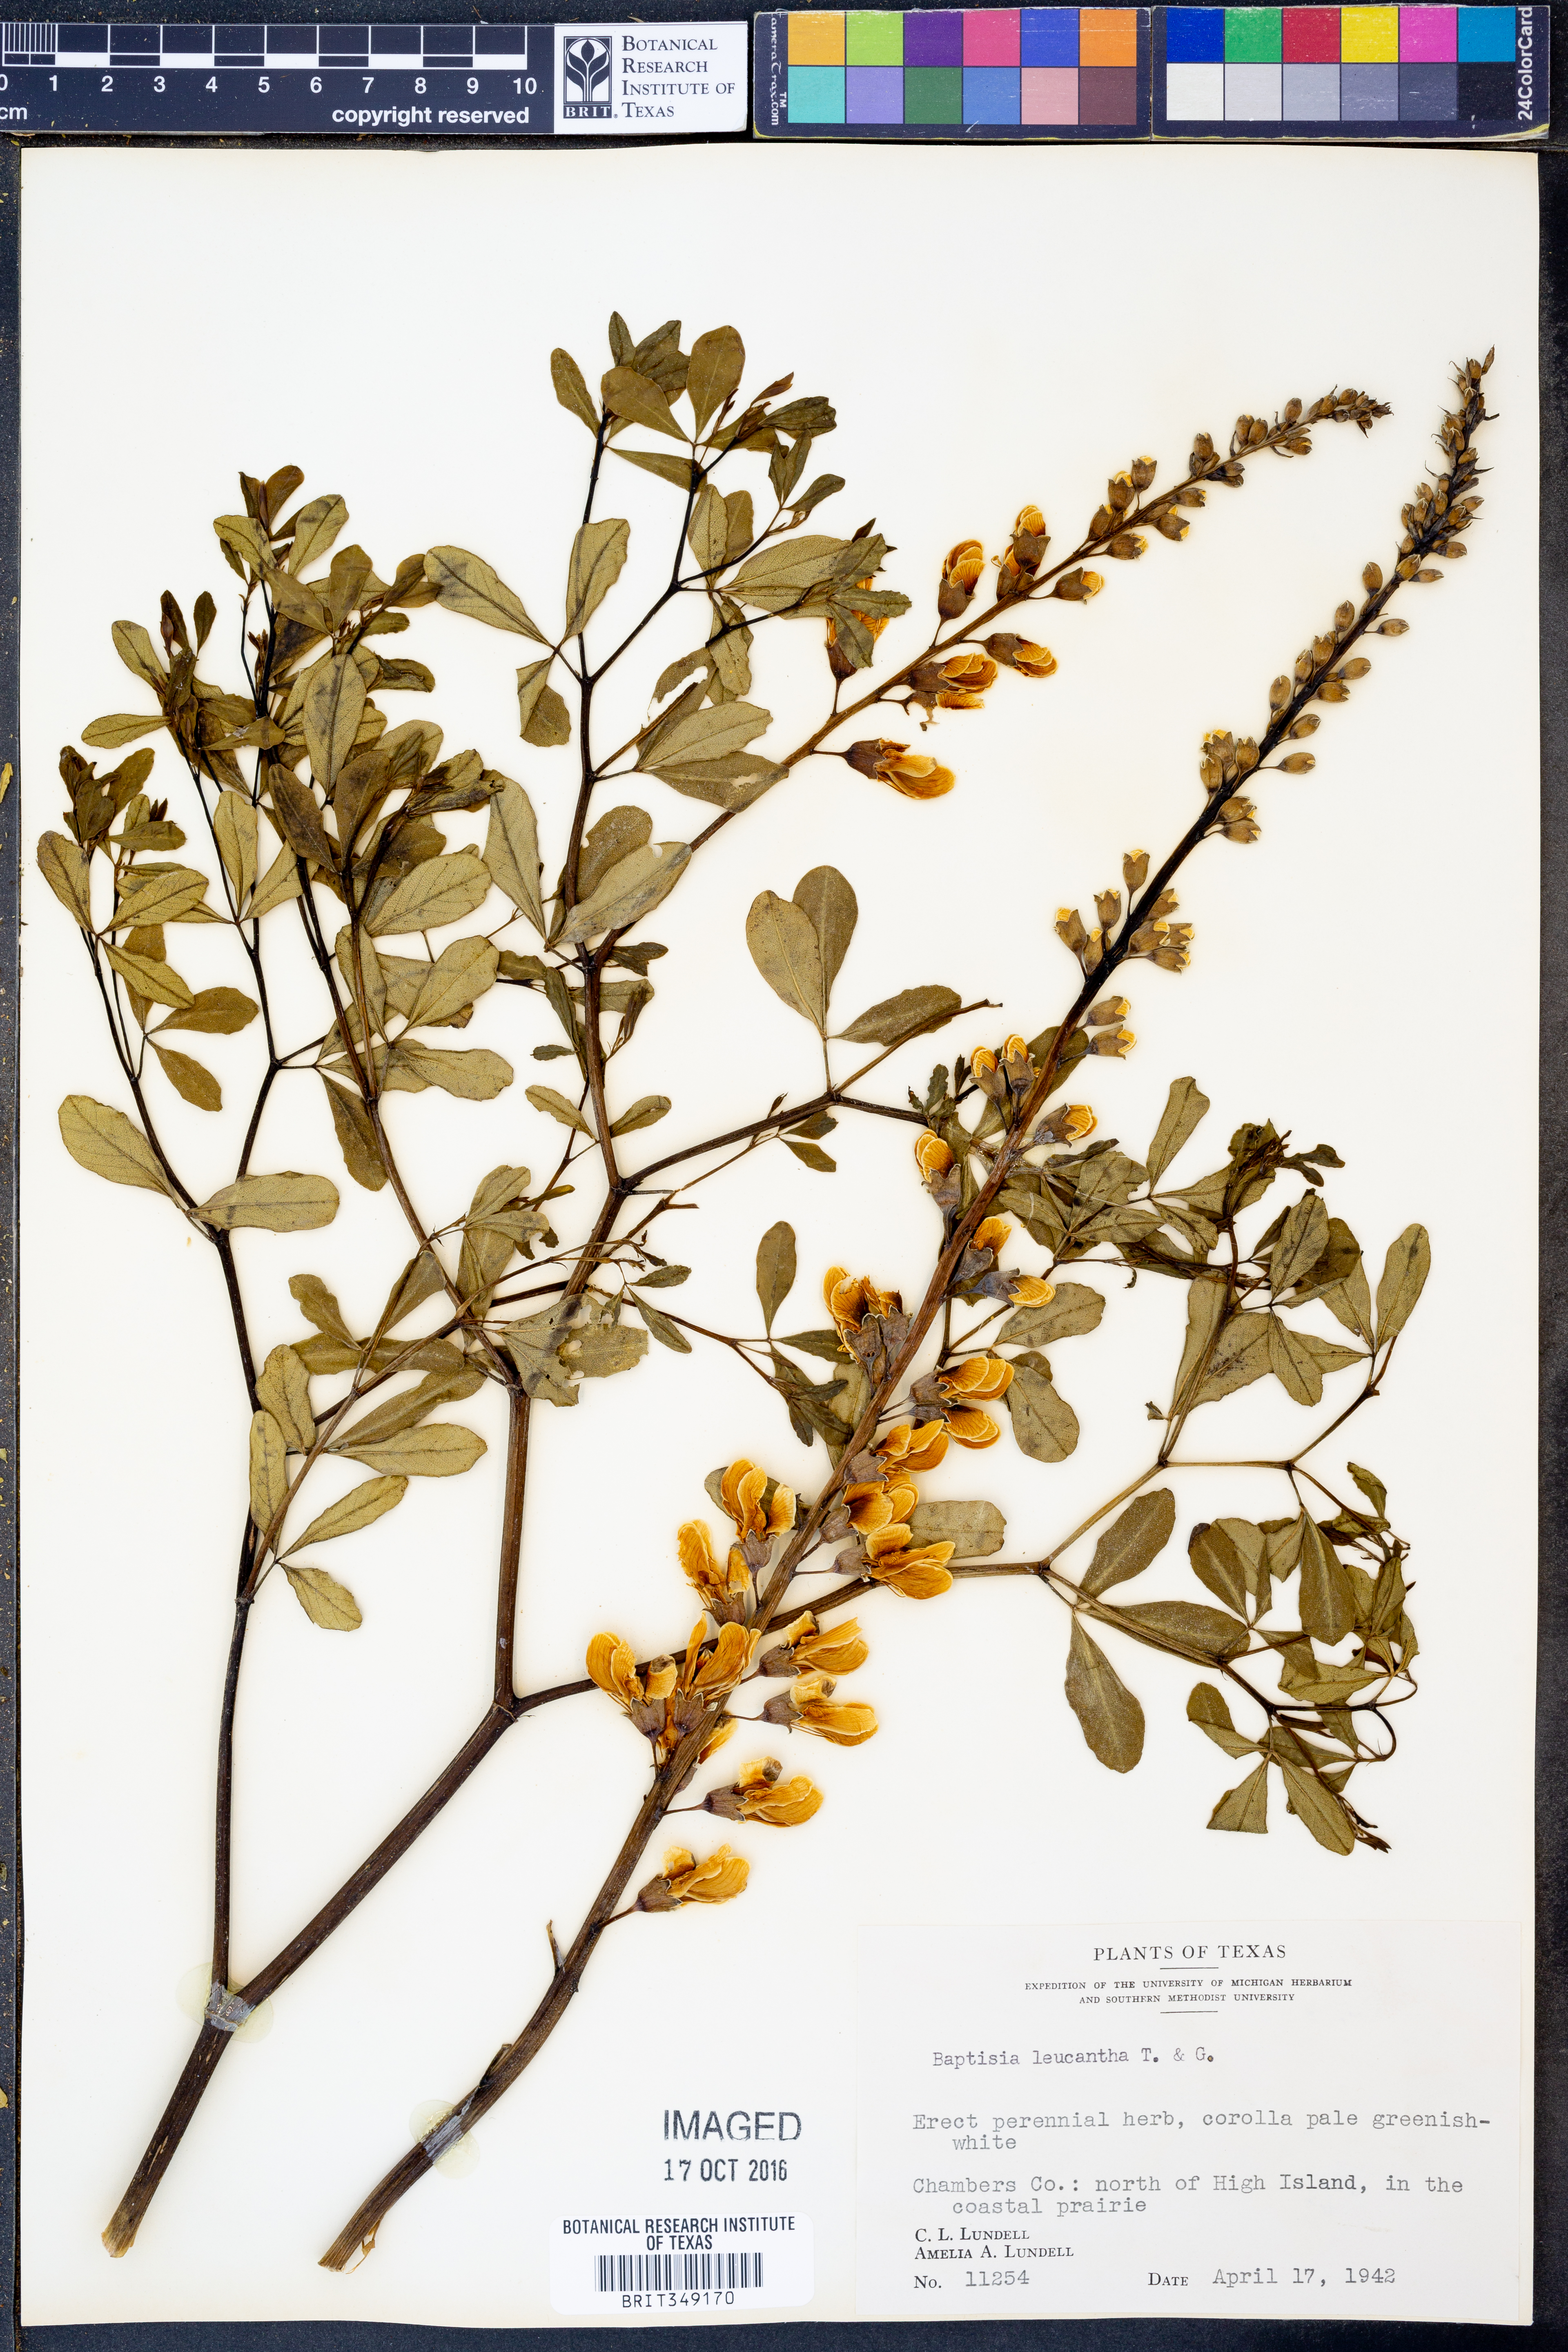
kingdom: Plantae
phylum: Tracheophyta
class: Magnoliopsida
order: Fabales
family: Fabaceae
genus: Baptisia
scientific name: Baptisia alba
